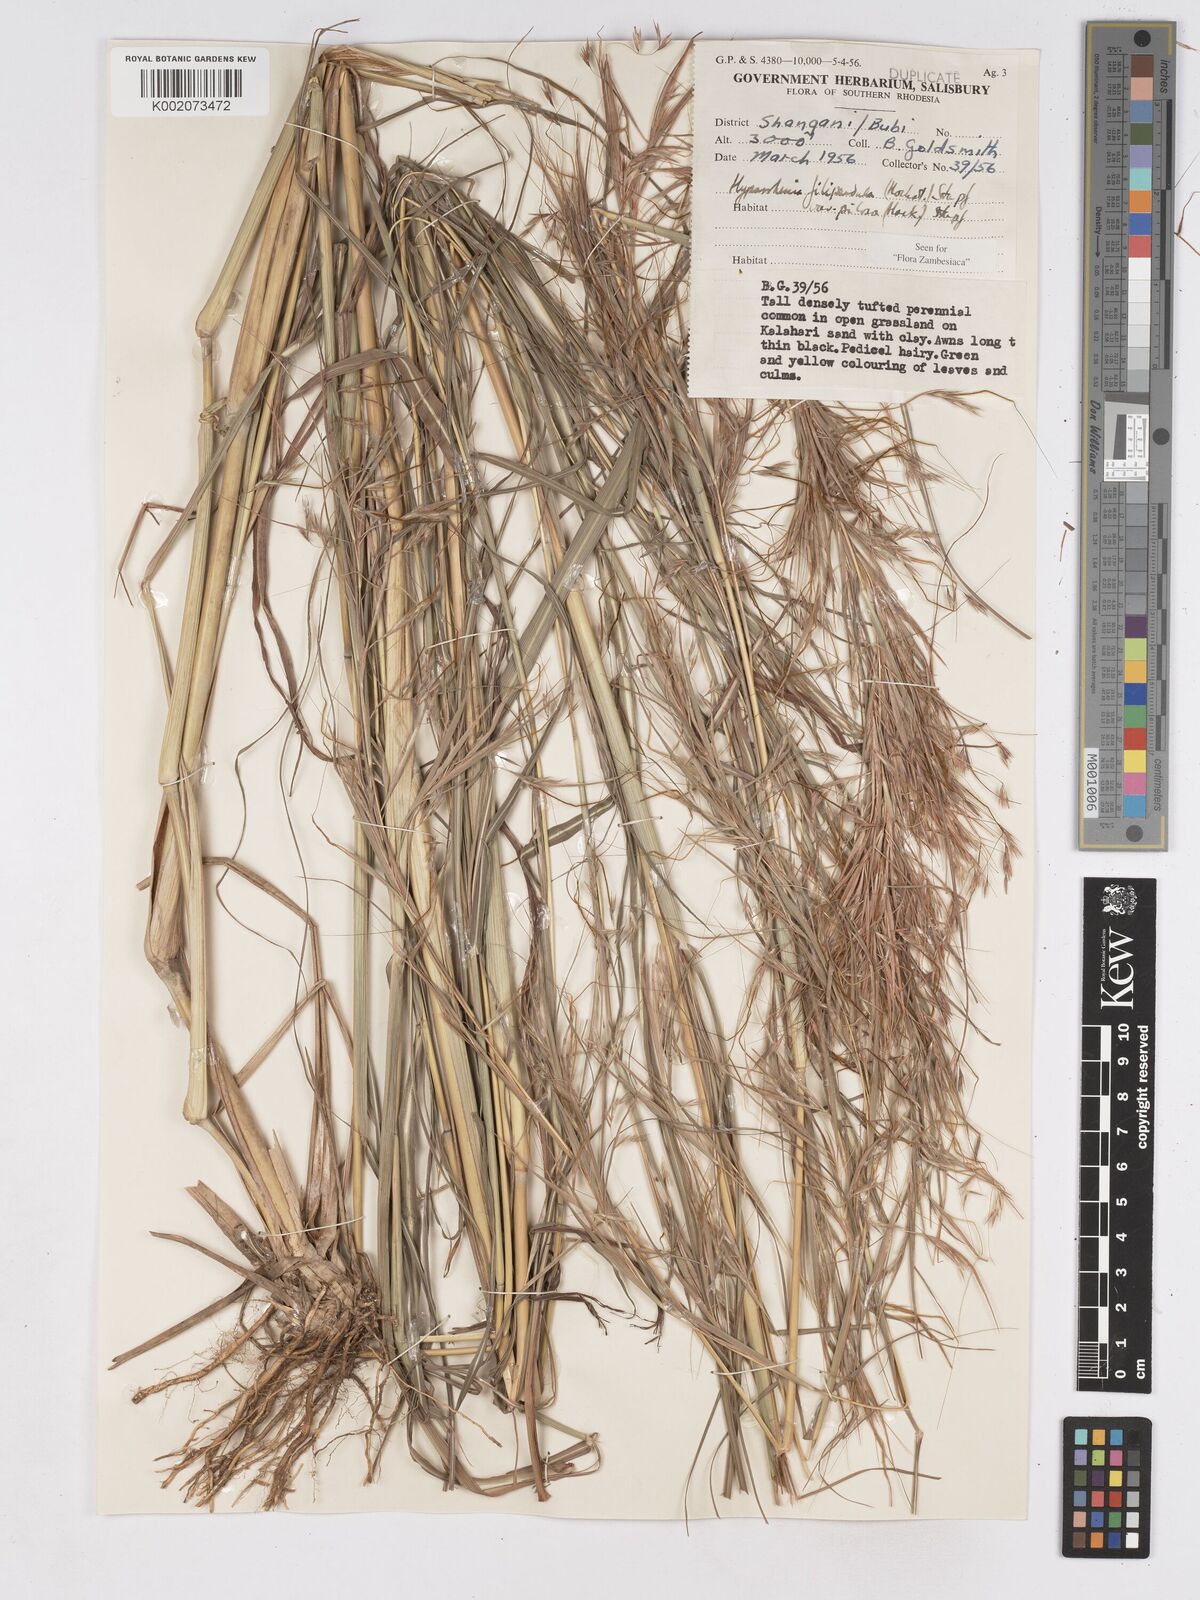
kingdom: Plantae
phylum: Tracheophyta
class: Liliopsida
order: Poales
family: Poaceae
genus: Hyparrhenia
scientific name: Hyparrhenia filipendula
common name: Tambookie grass
